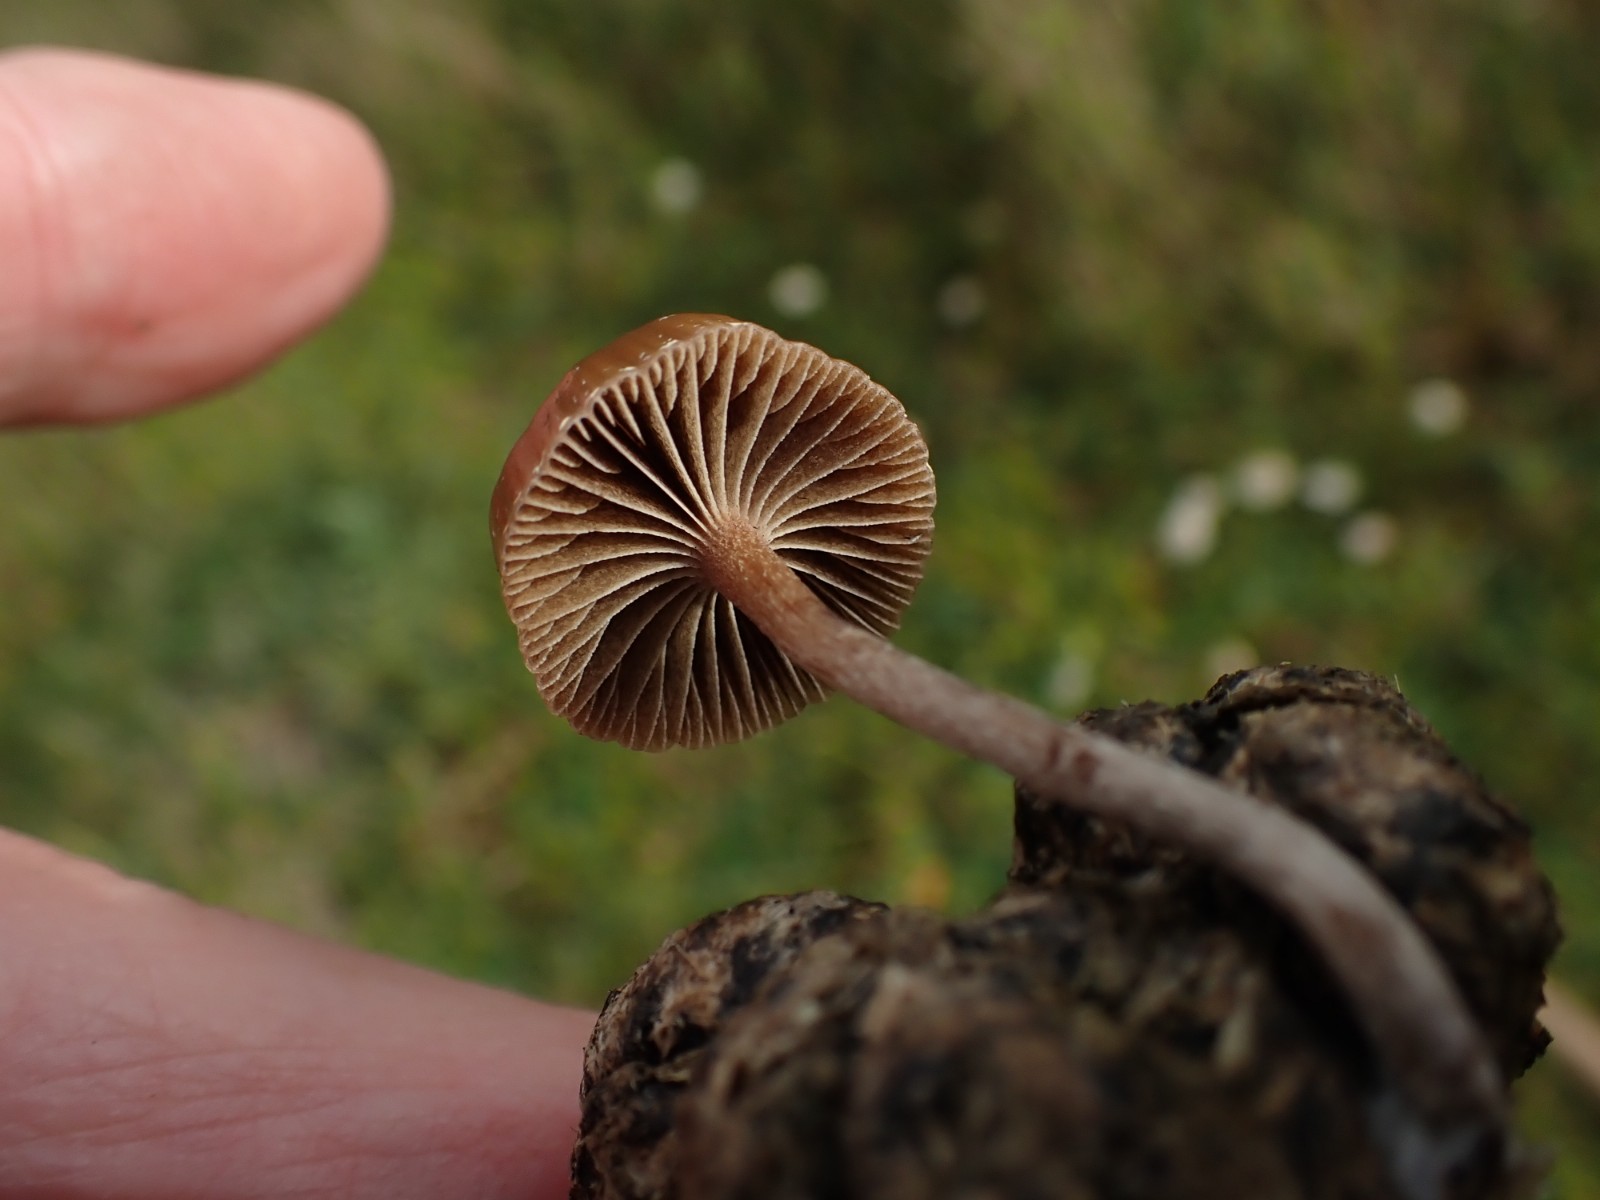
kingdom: Fungi
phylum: Basidiomycota
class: Agaricomycetes
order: Agaricales
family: Strophariaceae
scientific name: Strophariaceae
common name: bredbladfamilien
